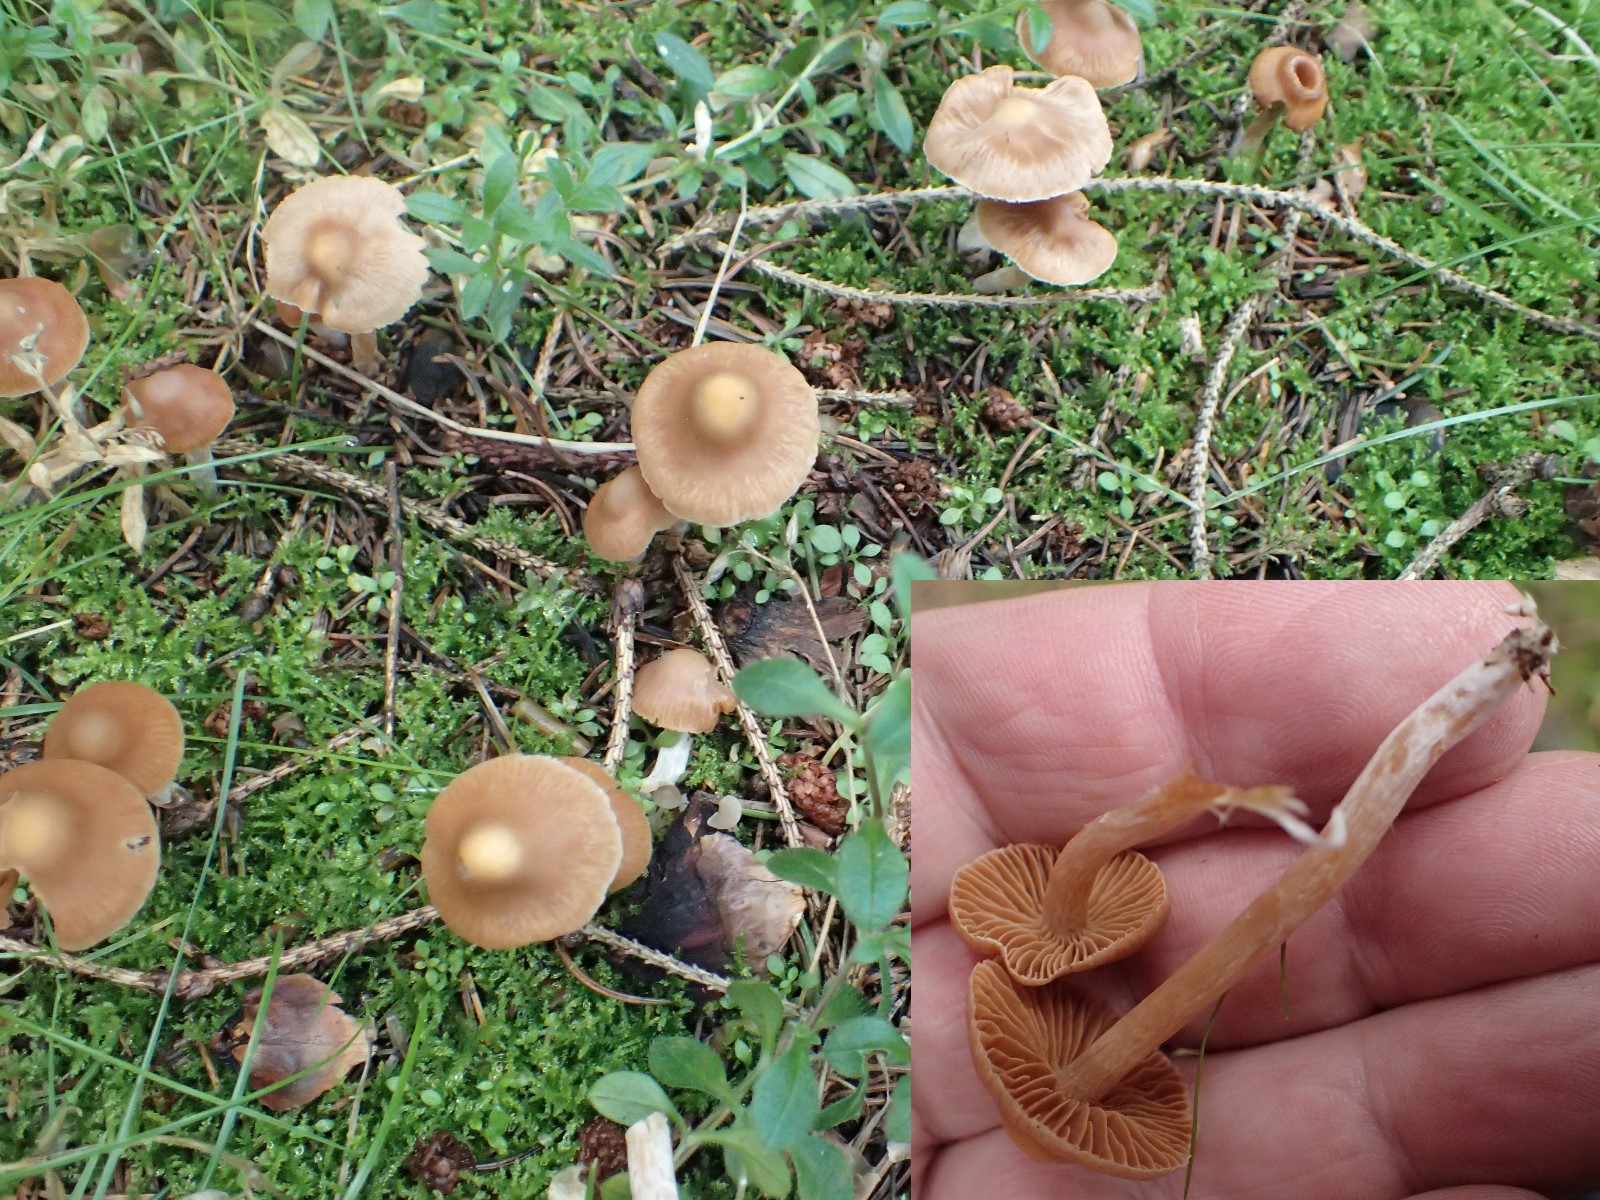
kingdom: Fungi
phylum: Basidiomycota
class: Agaricomycetes
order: Agaricales
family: Cortinariaceae
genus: Cortinarius
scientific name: Cortinarius
